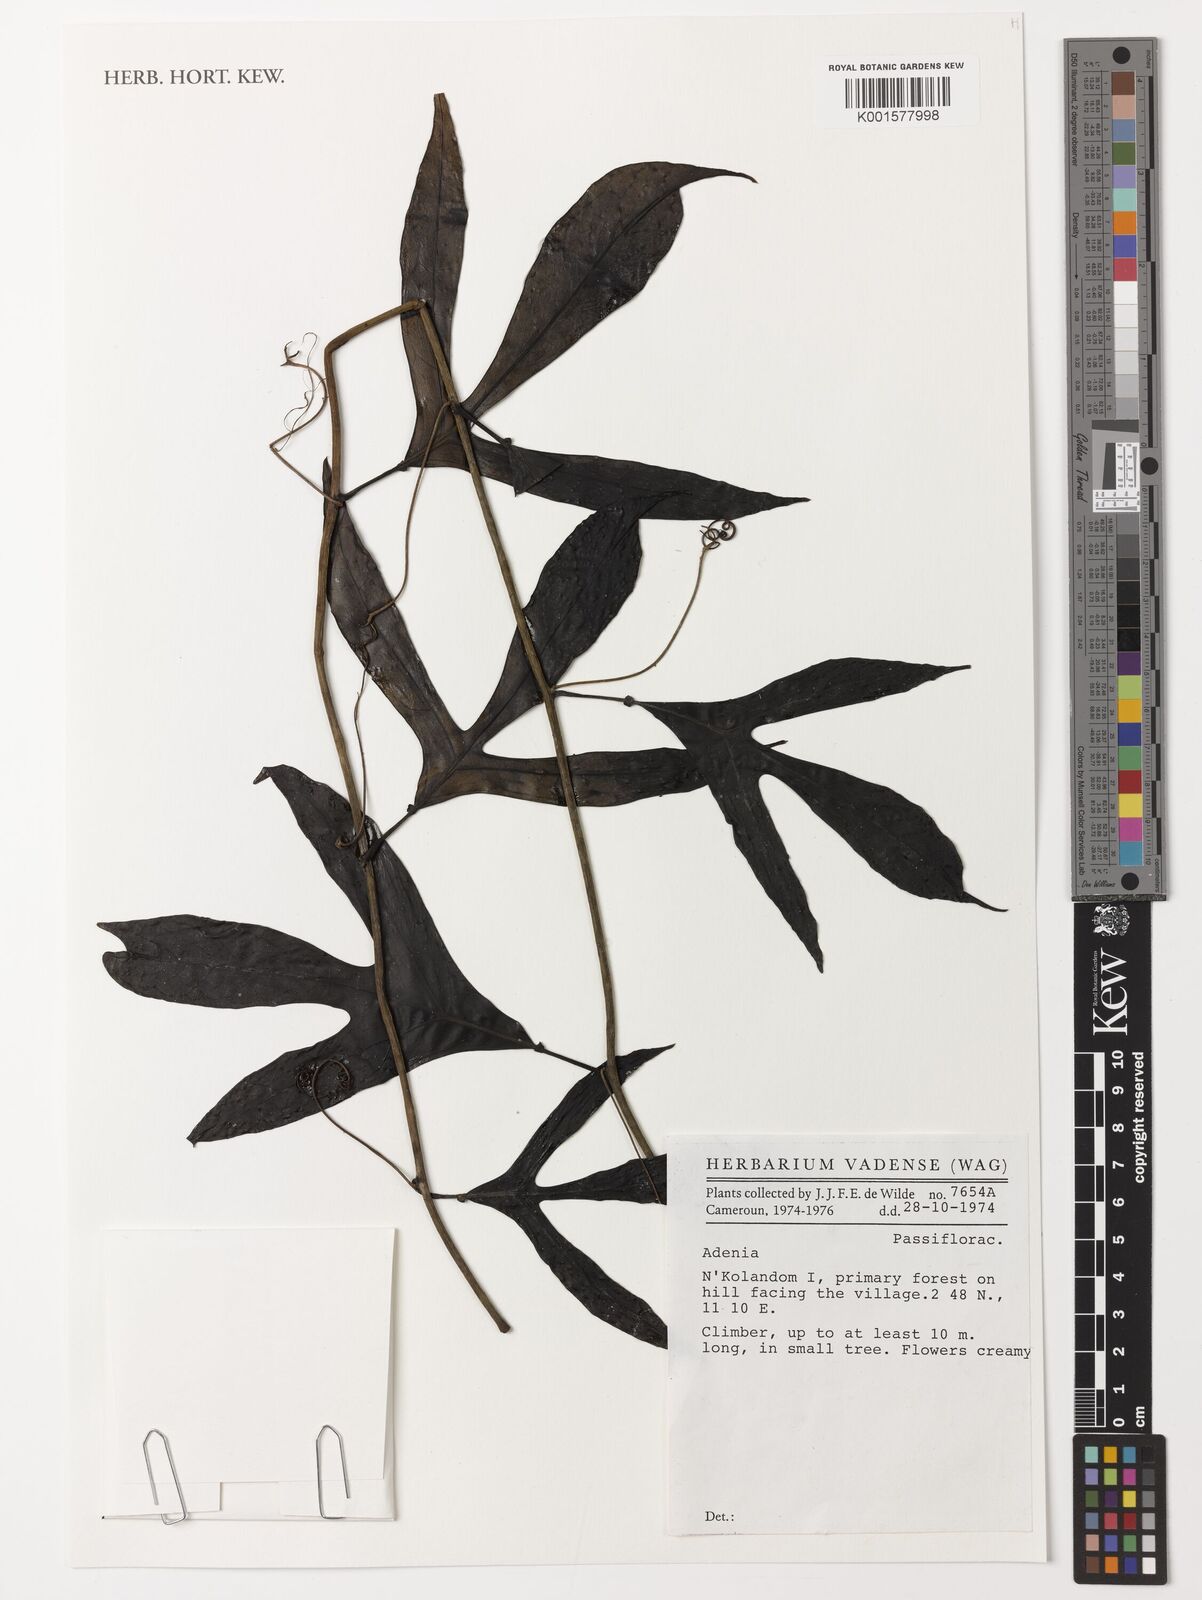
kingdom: Plantae
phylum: Tracheophyta
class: Magnoliopsida
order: Malpighiales
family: Passifloraceae
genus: Adenia
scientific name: Adenia
